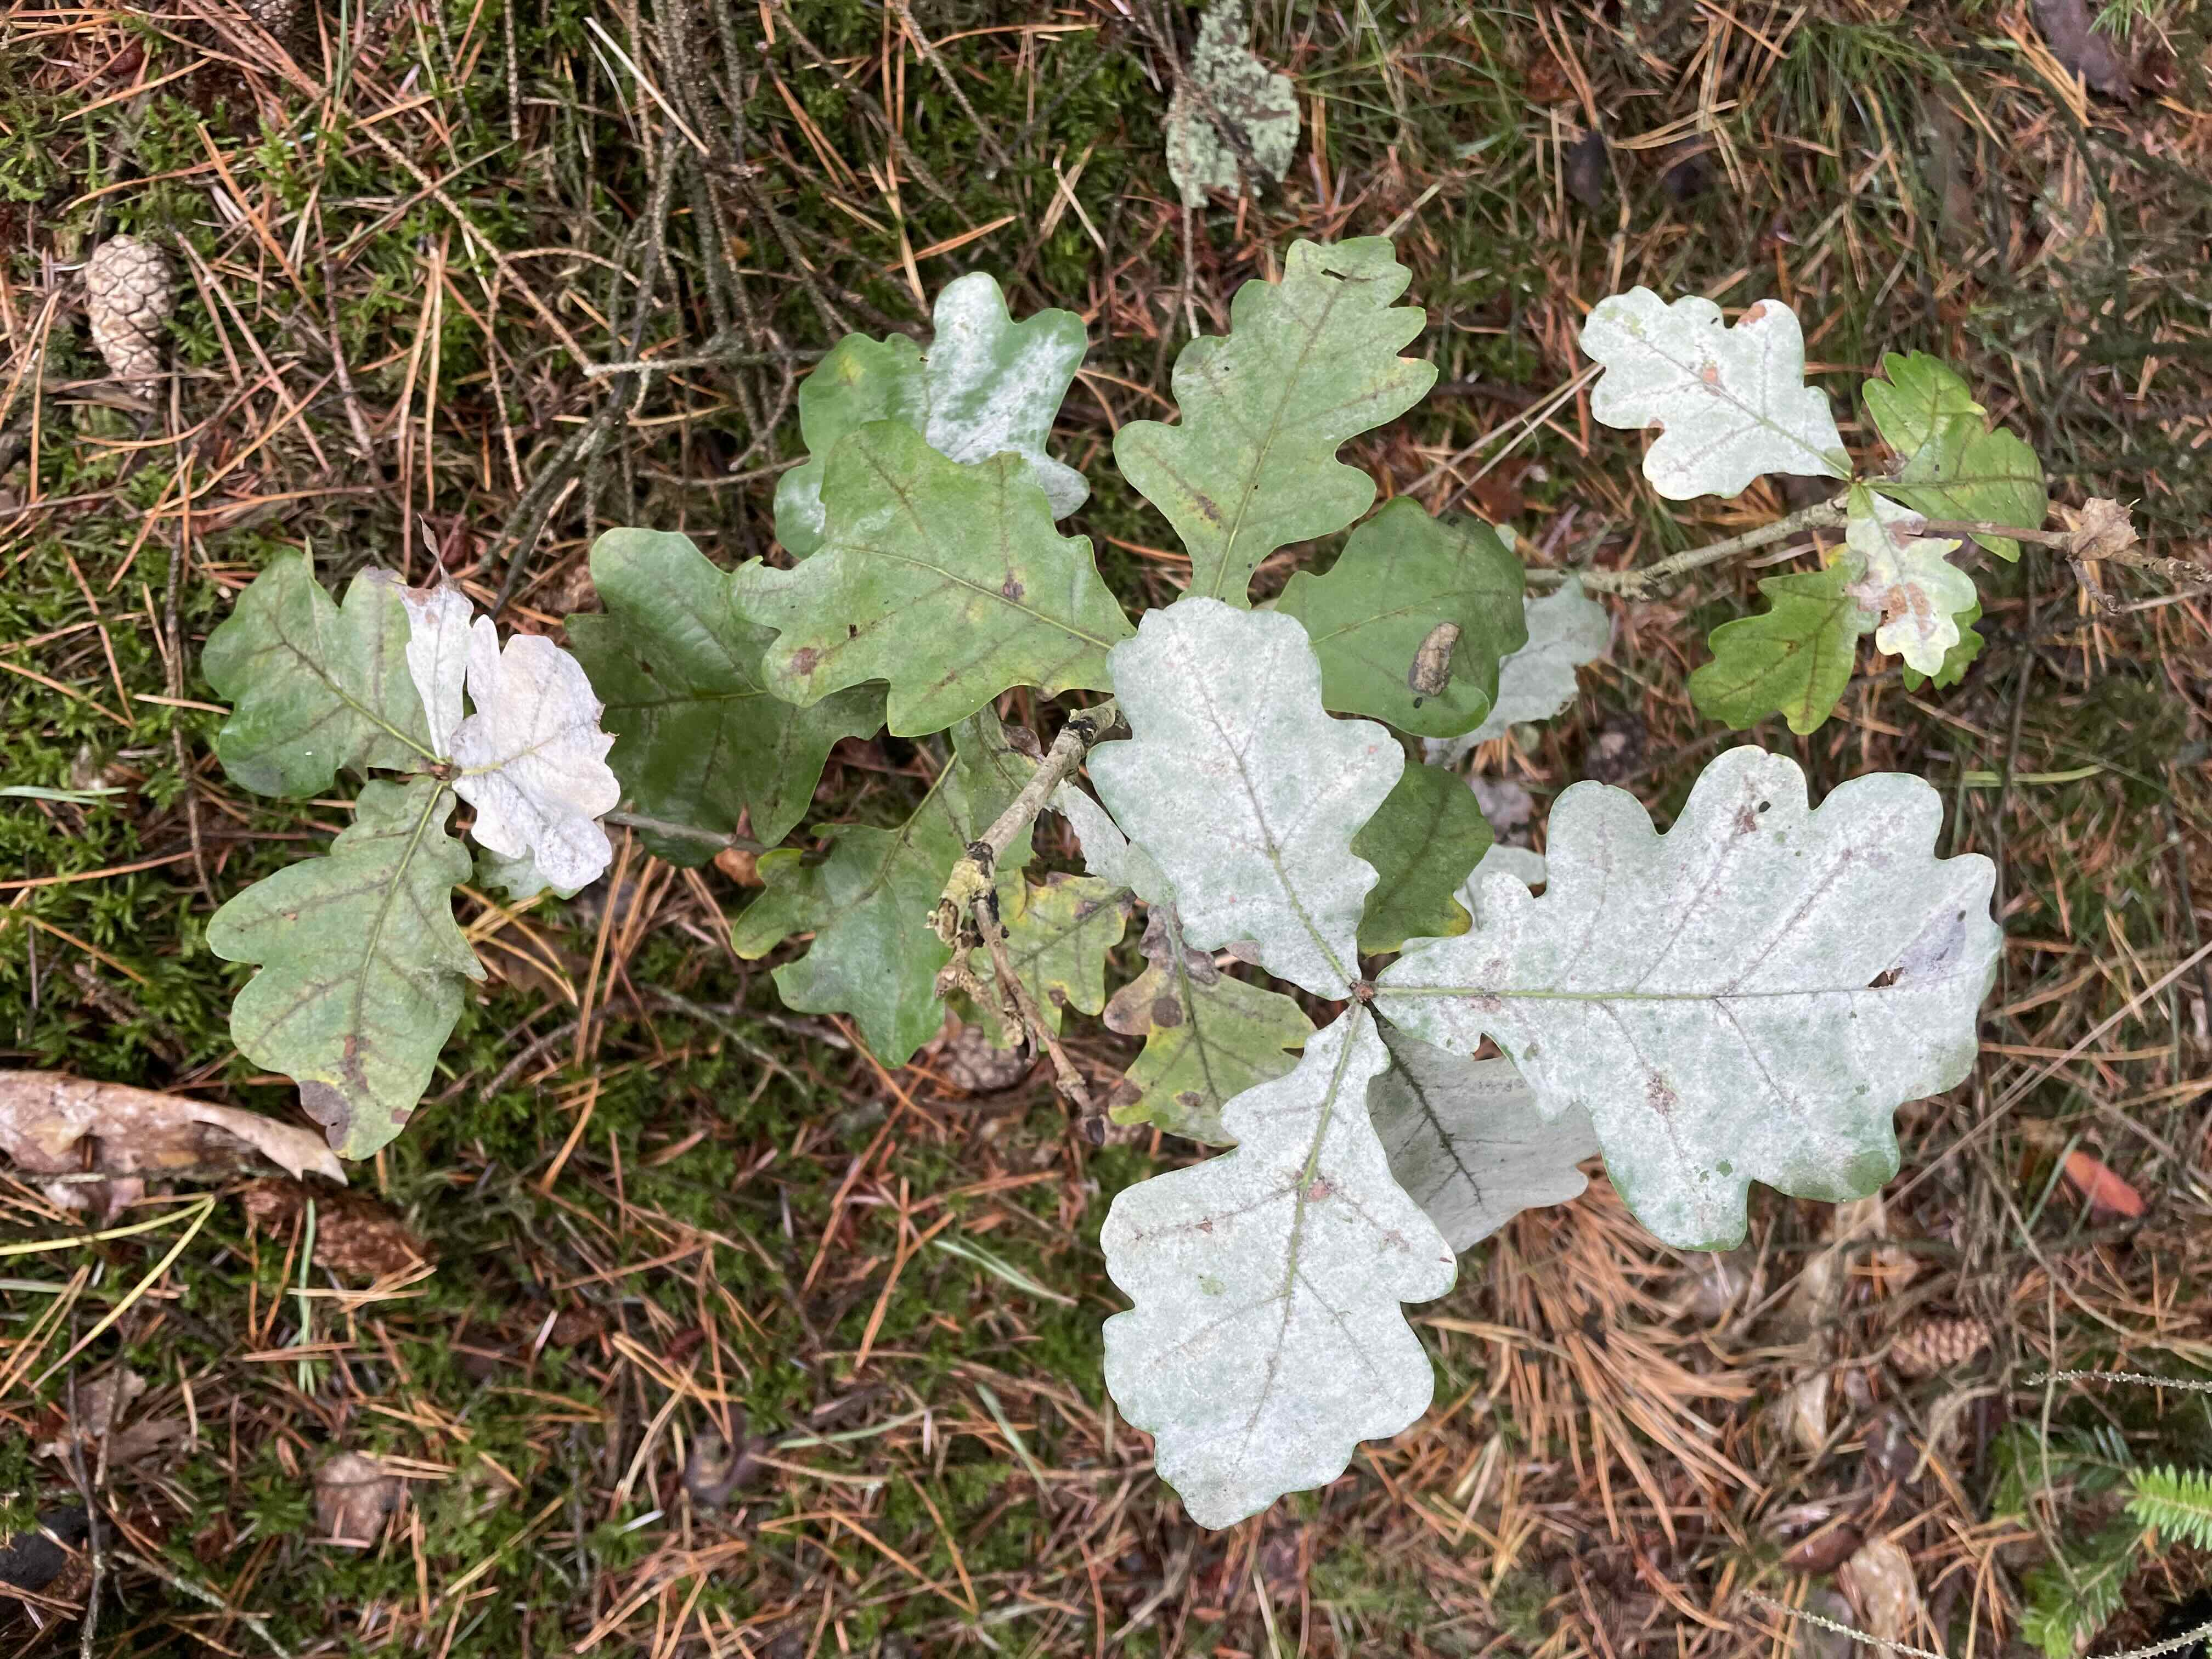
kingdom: Fungi
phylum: Ascomycota
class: Leotiomycetes
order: Helotiales
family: Erysiphaceae
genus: Erysiphe
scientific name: Erysiphe alphitoides
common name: ege-meldug
